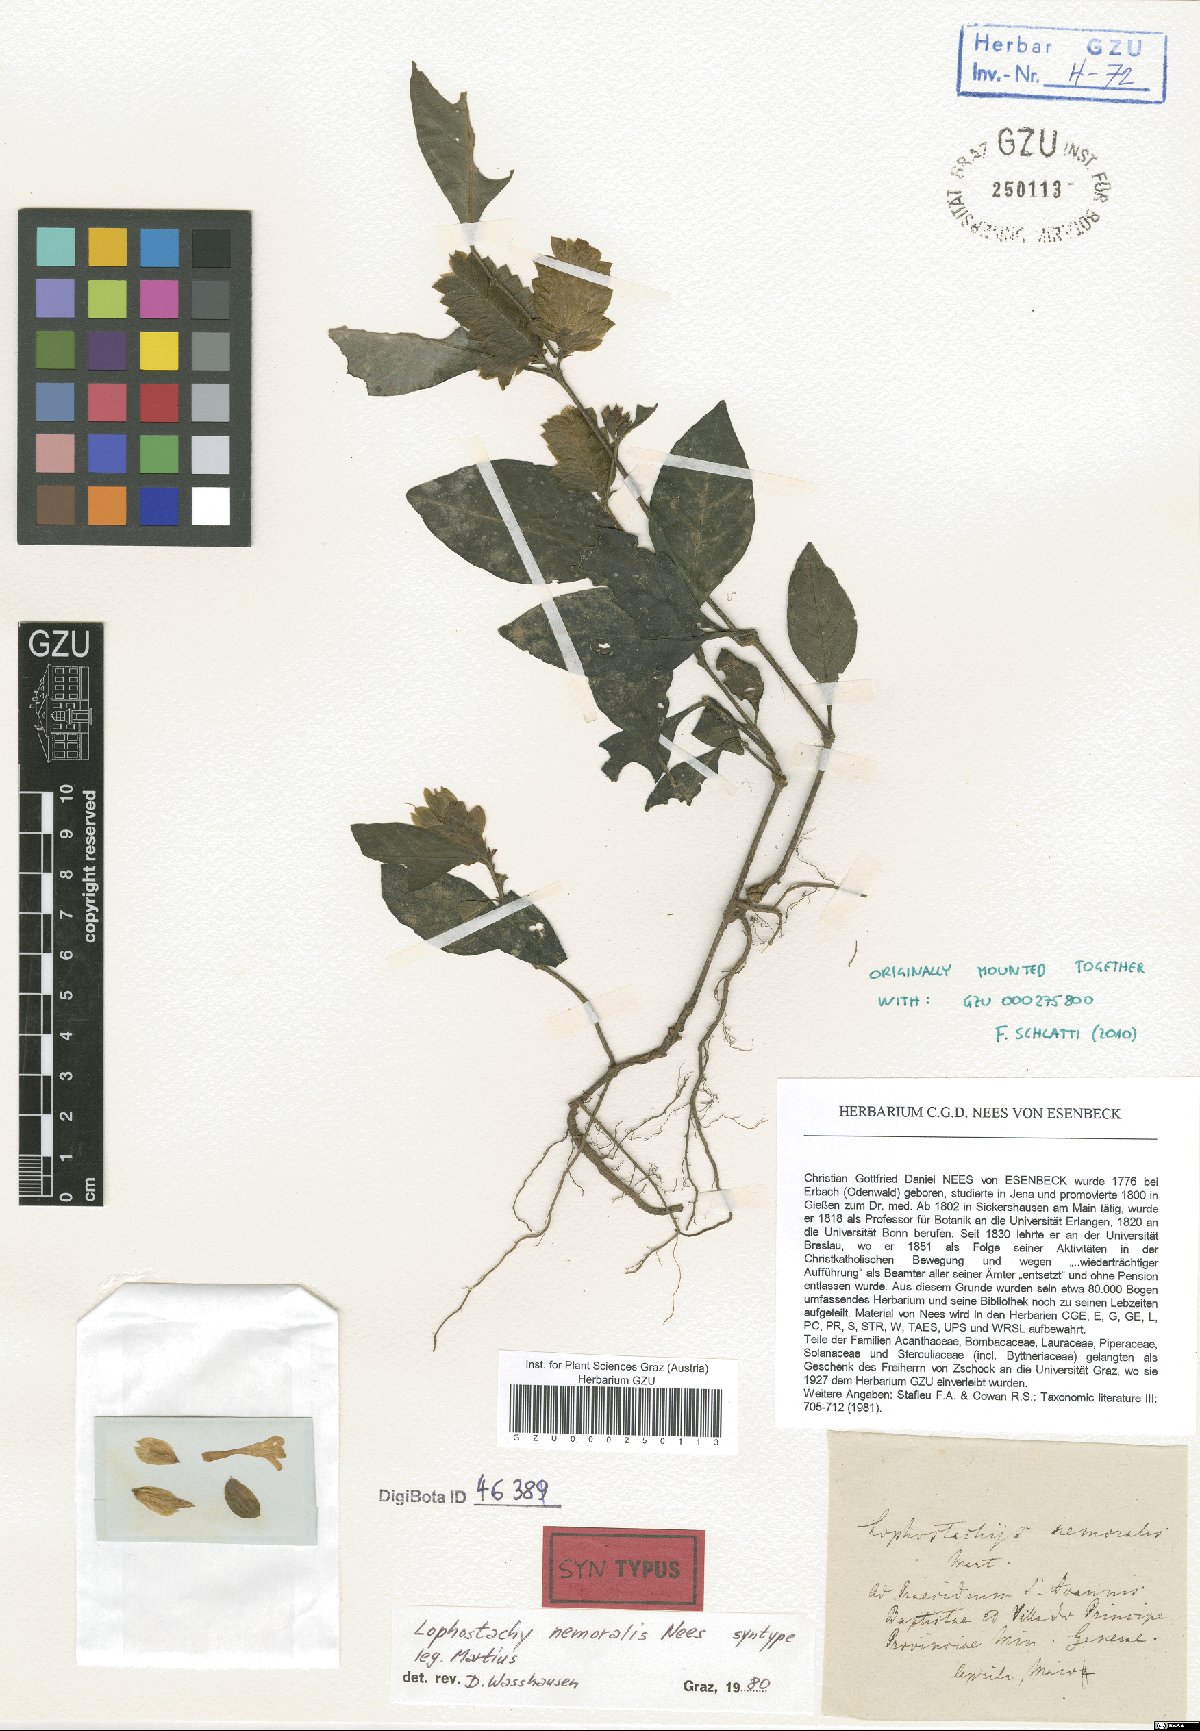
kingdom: Plantae
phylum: Tracheophyta
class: Magnoliopsida
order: Lamiales
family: Acanthaceae
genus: Lepidagathis
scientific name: Lepidagathis nemoralis
